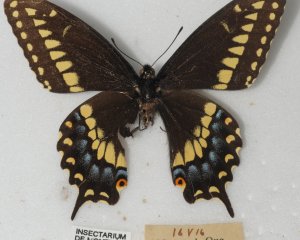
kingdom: Animalia
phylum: Arthropoda
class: Insecta
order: Lepidoptera
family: Papilionidae
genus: Papilio
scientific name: Papilio polyxenes
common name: Black Swallowtail
